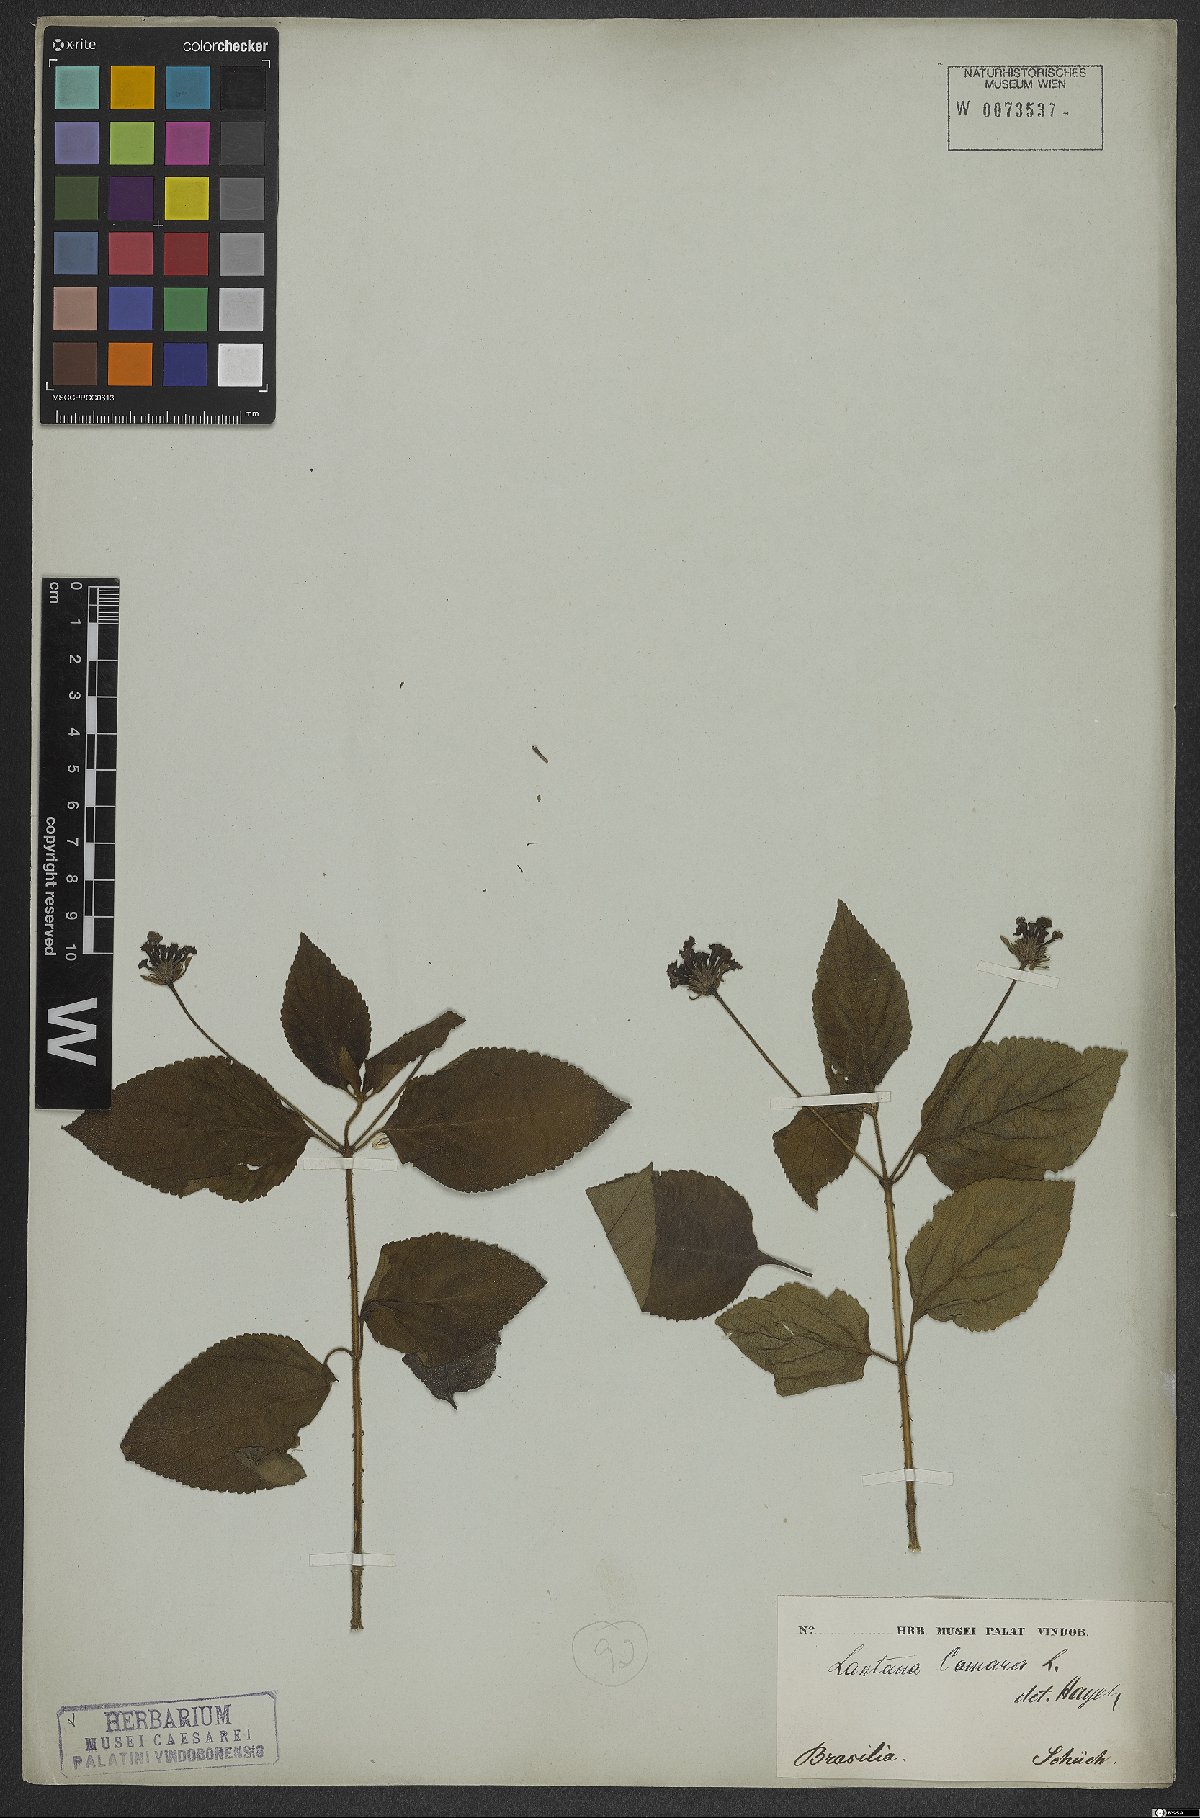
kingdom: Plantae
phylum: Tracheophyta
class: Magnoliopsida
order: Lamiales
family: Verbenaceae
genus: Lantana
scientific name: Lantana camara
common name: Lantana
